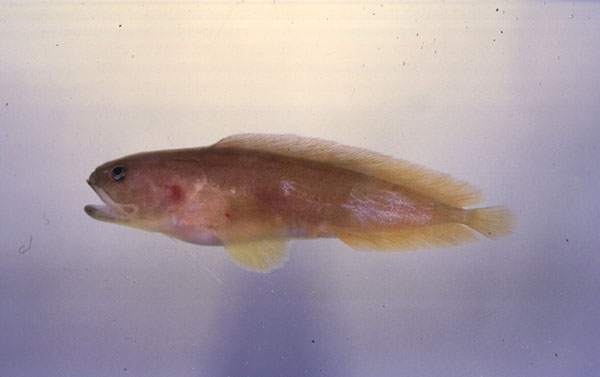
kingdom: Animalia
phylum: Chordata
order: Ophidiiformes
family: Bythitidae
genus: Bidenichthys
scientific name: Bidenichthys capensis
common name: Freetail brotula
